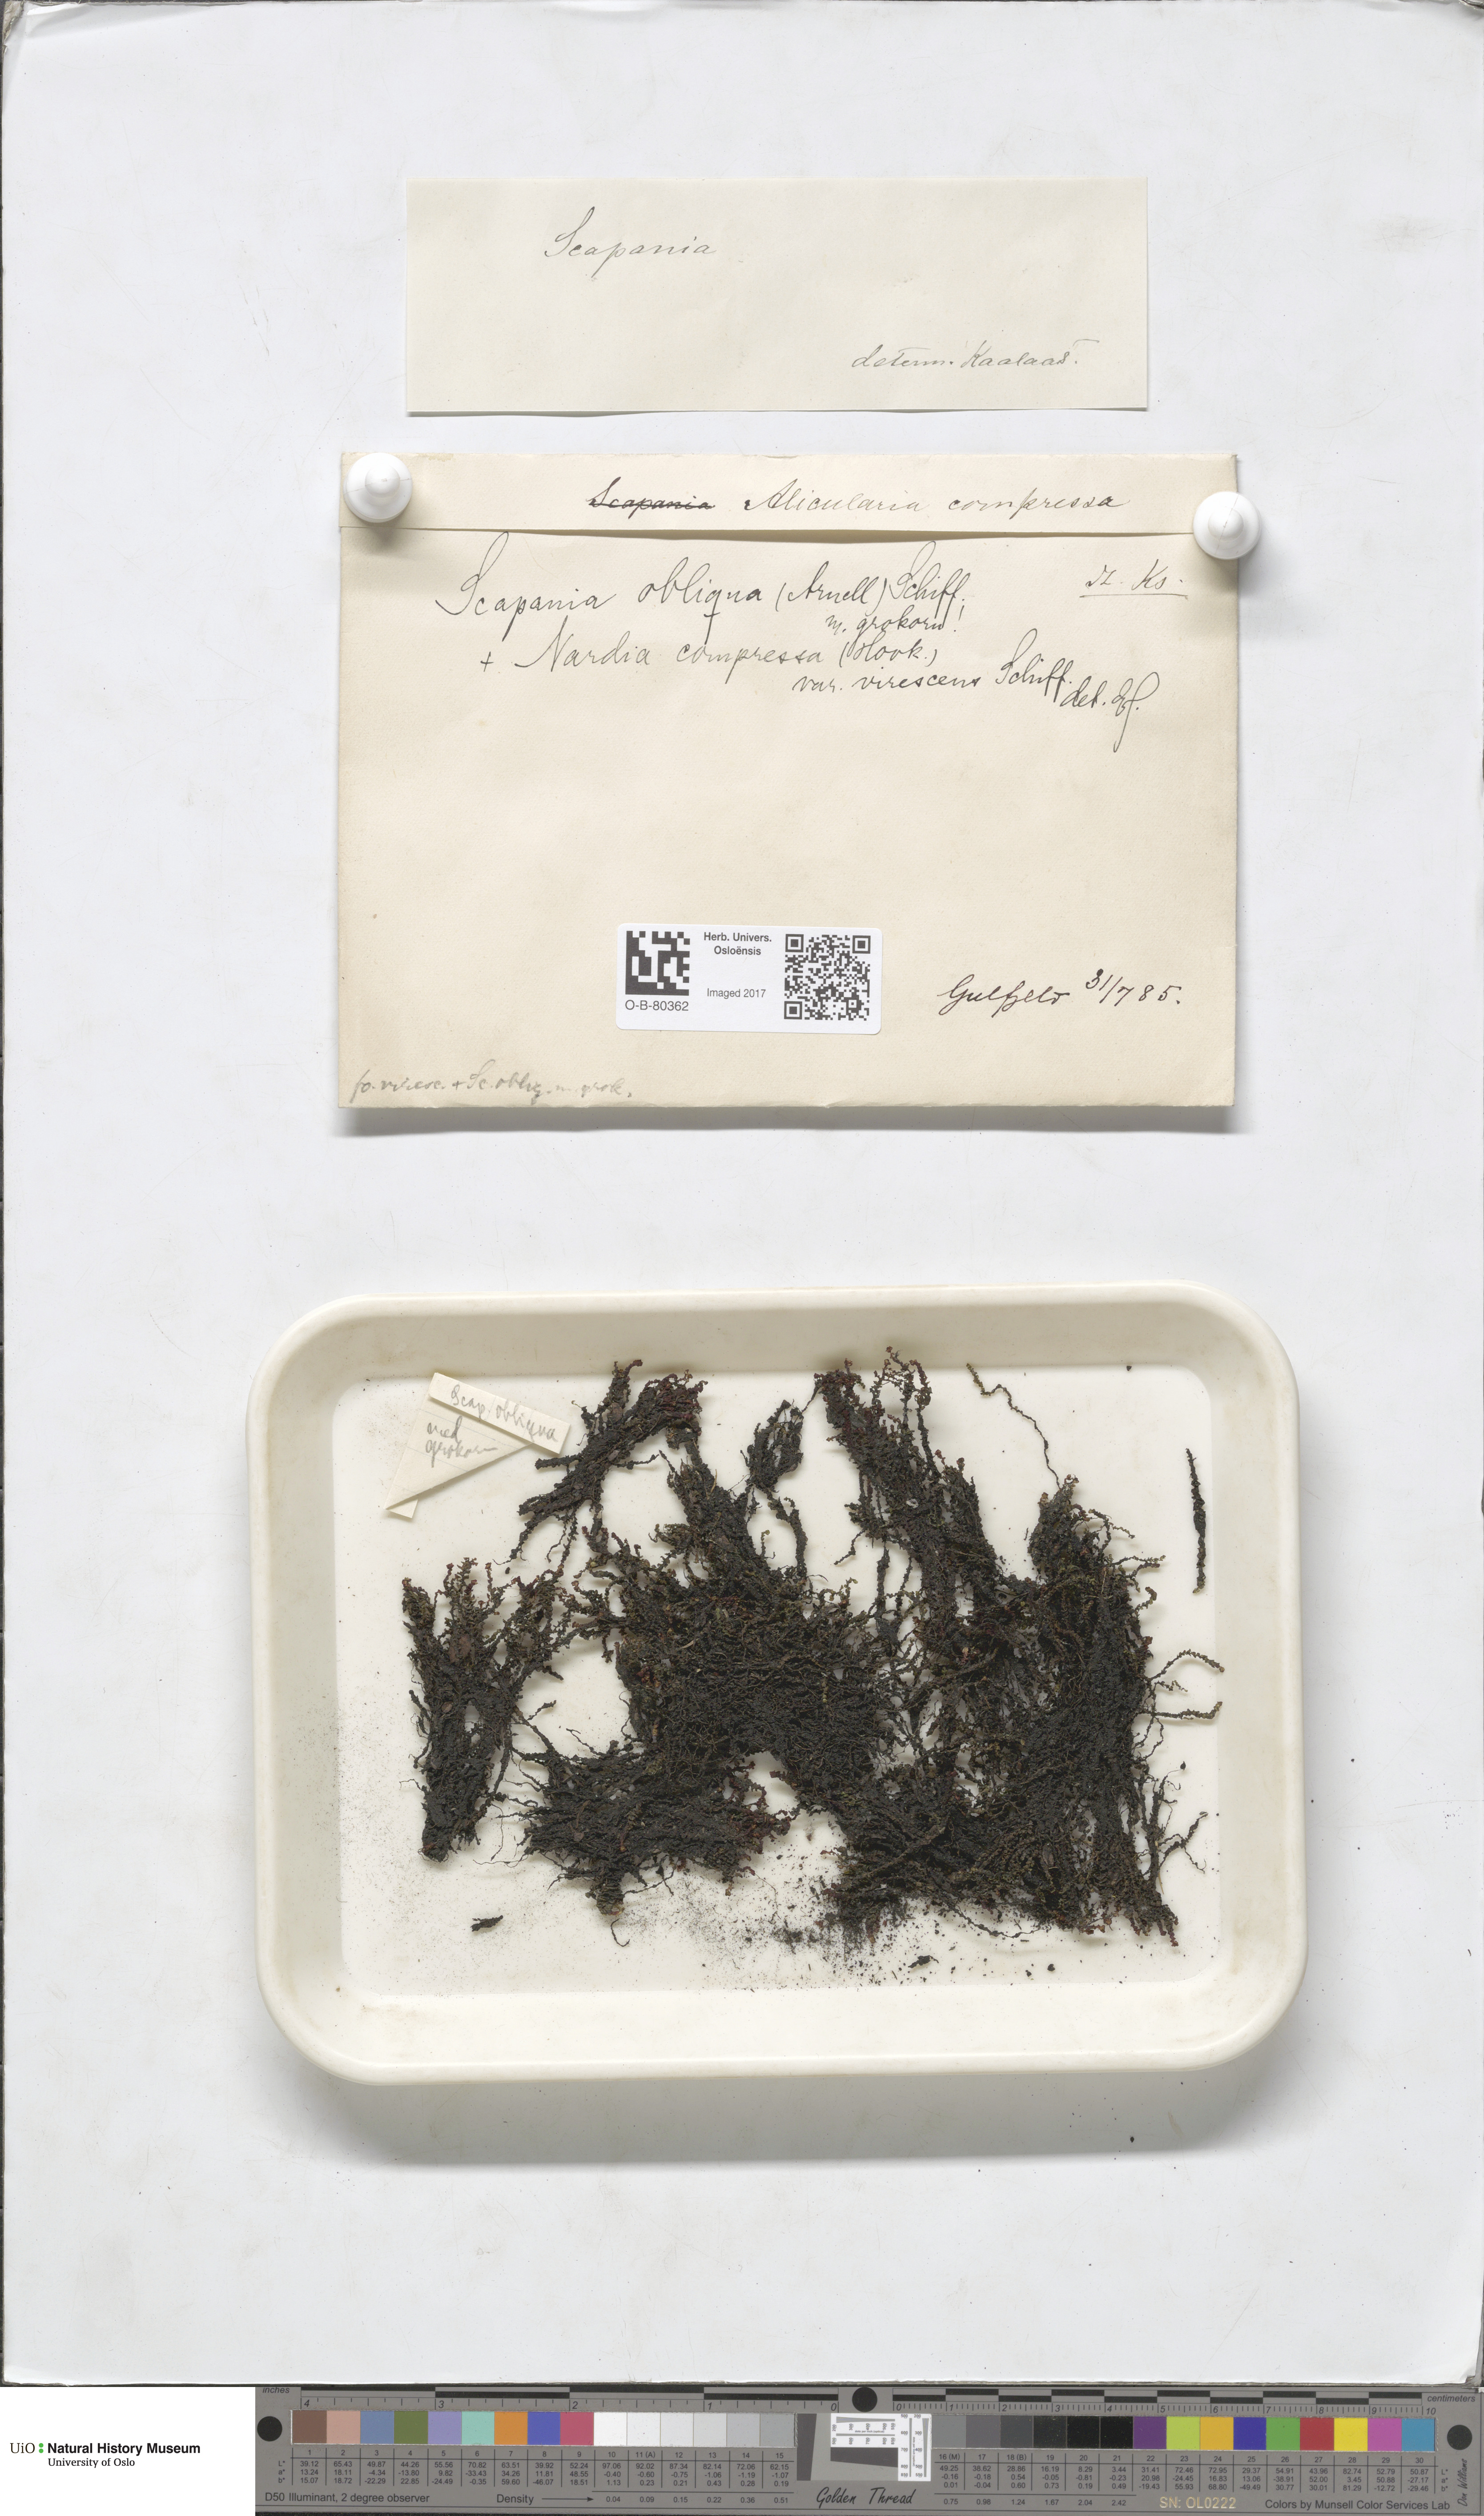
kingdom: Plantae
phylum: Marchantiophyta
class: Jungermanniopsida
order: Jungermanniales
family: Gymnomitriaceae
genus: Nardia
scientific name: Nardia compressa
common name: Compressed flapwort
